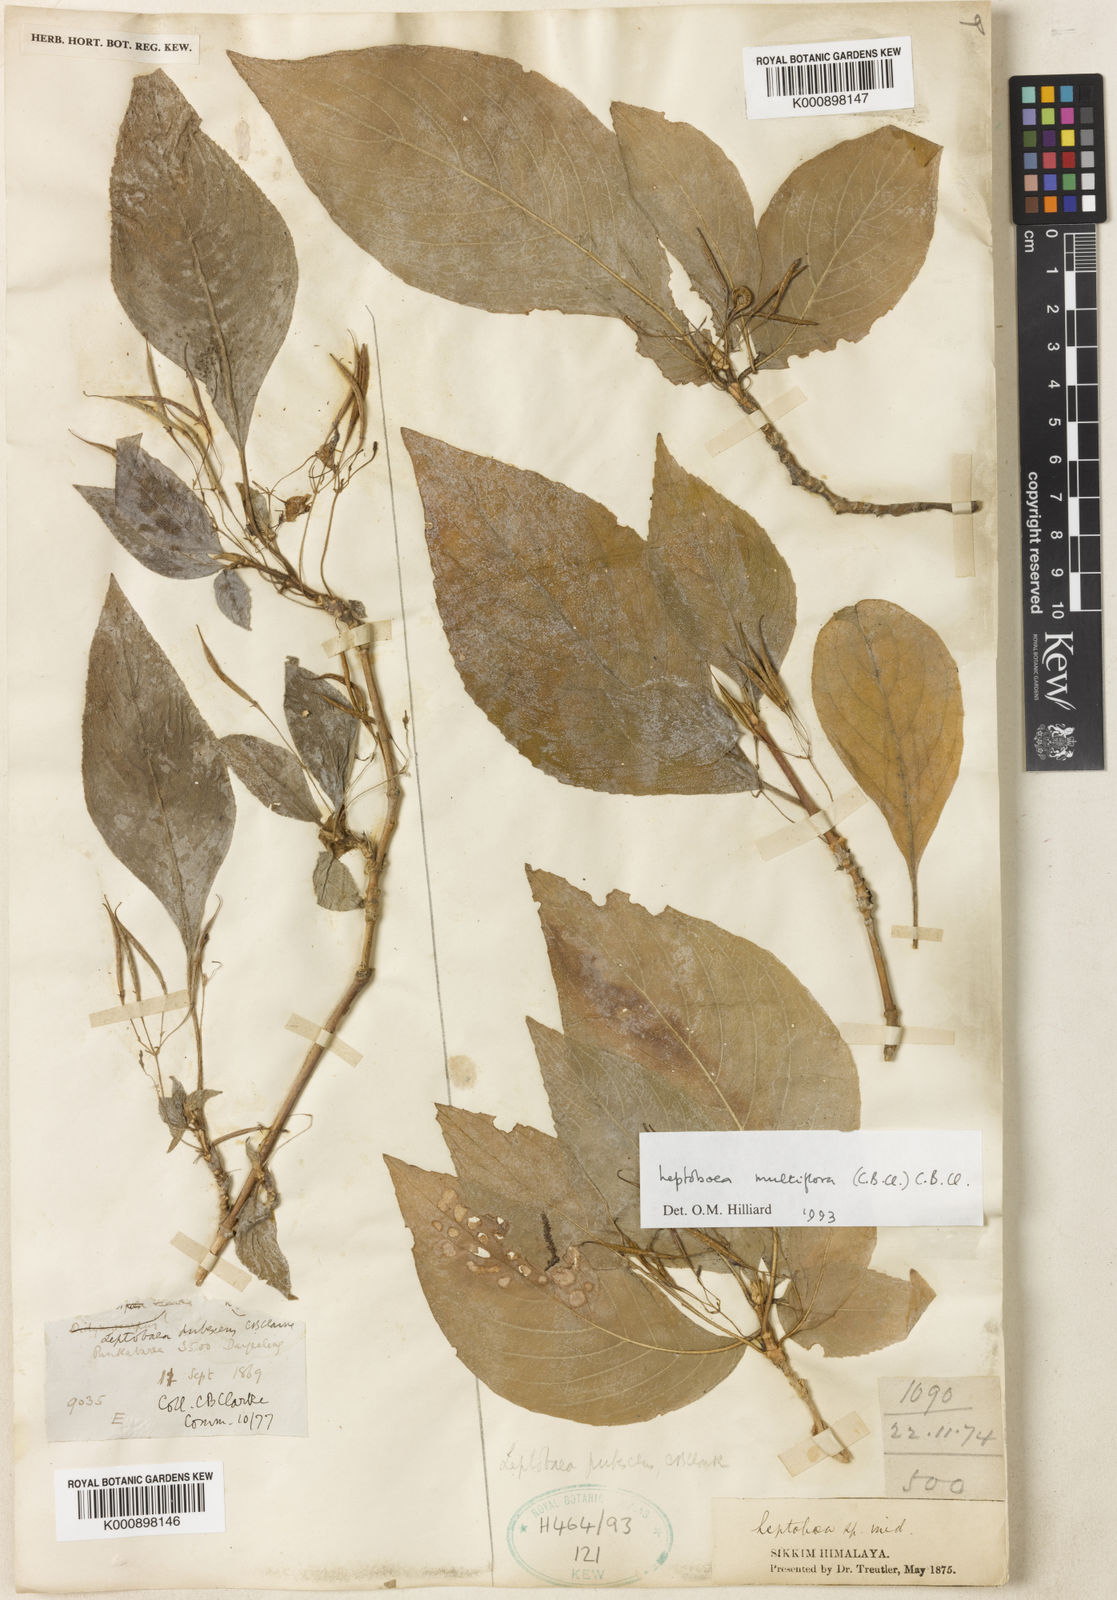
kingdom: Plantae
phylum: Tracheophyta
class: Magnoliopsida
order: Lamiales
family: Gesneriaceae
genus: Leptoboea
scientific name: Leptoboea multiflora
